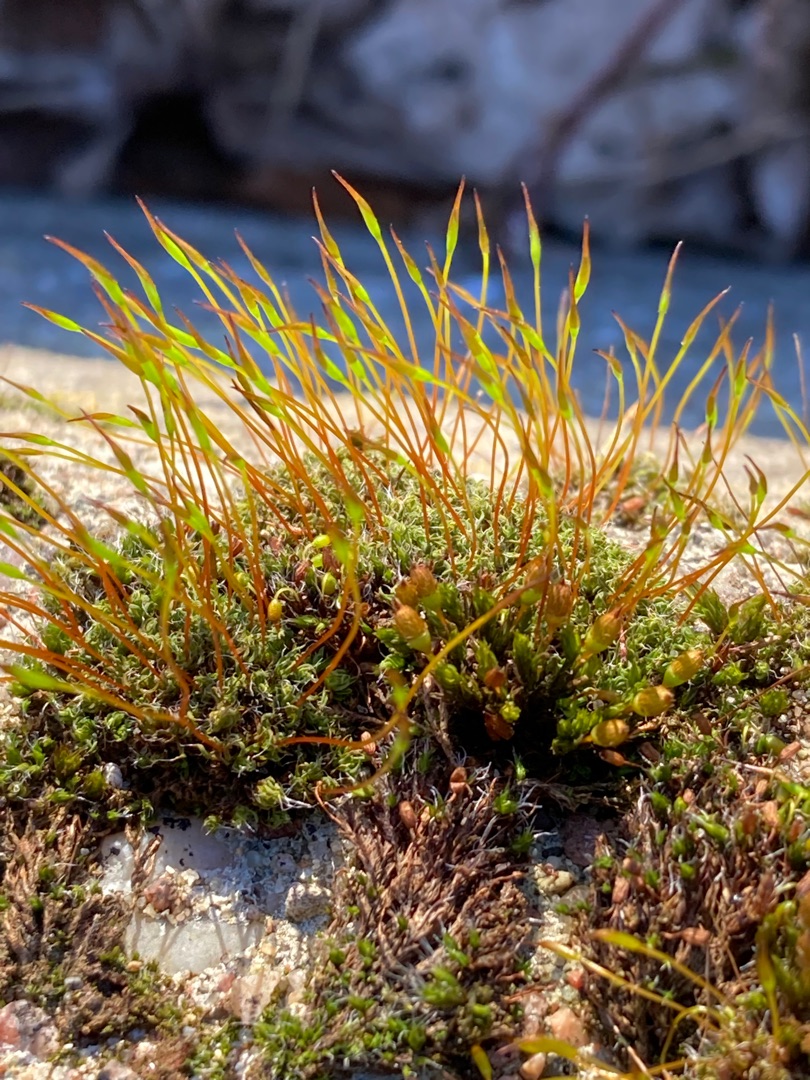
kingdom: Plantae
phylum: Bryophyta
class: Bryopsida
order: Pottiales
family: Pottiaceae
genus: Tortula
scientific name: Tortula muralis
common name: Mur-snotand
